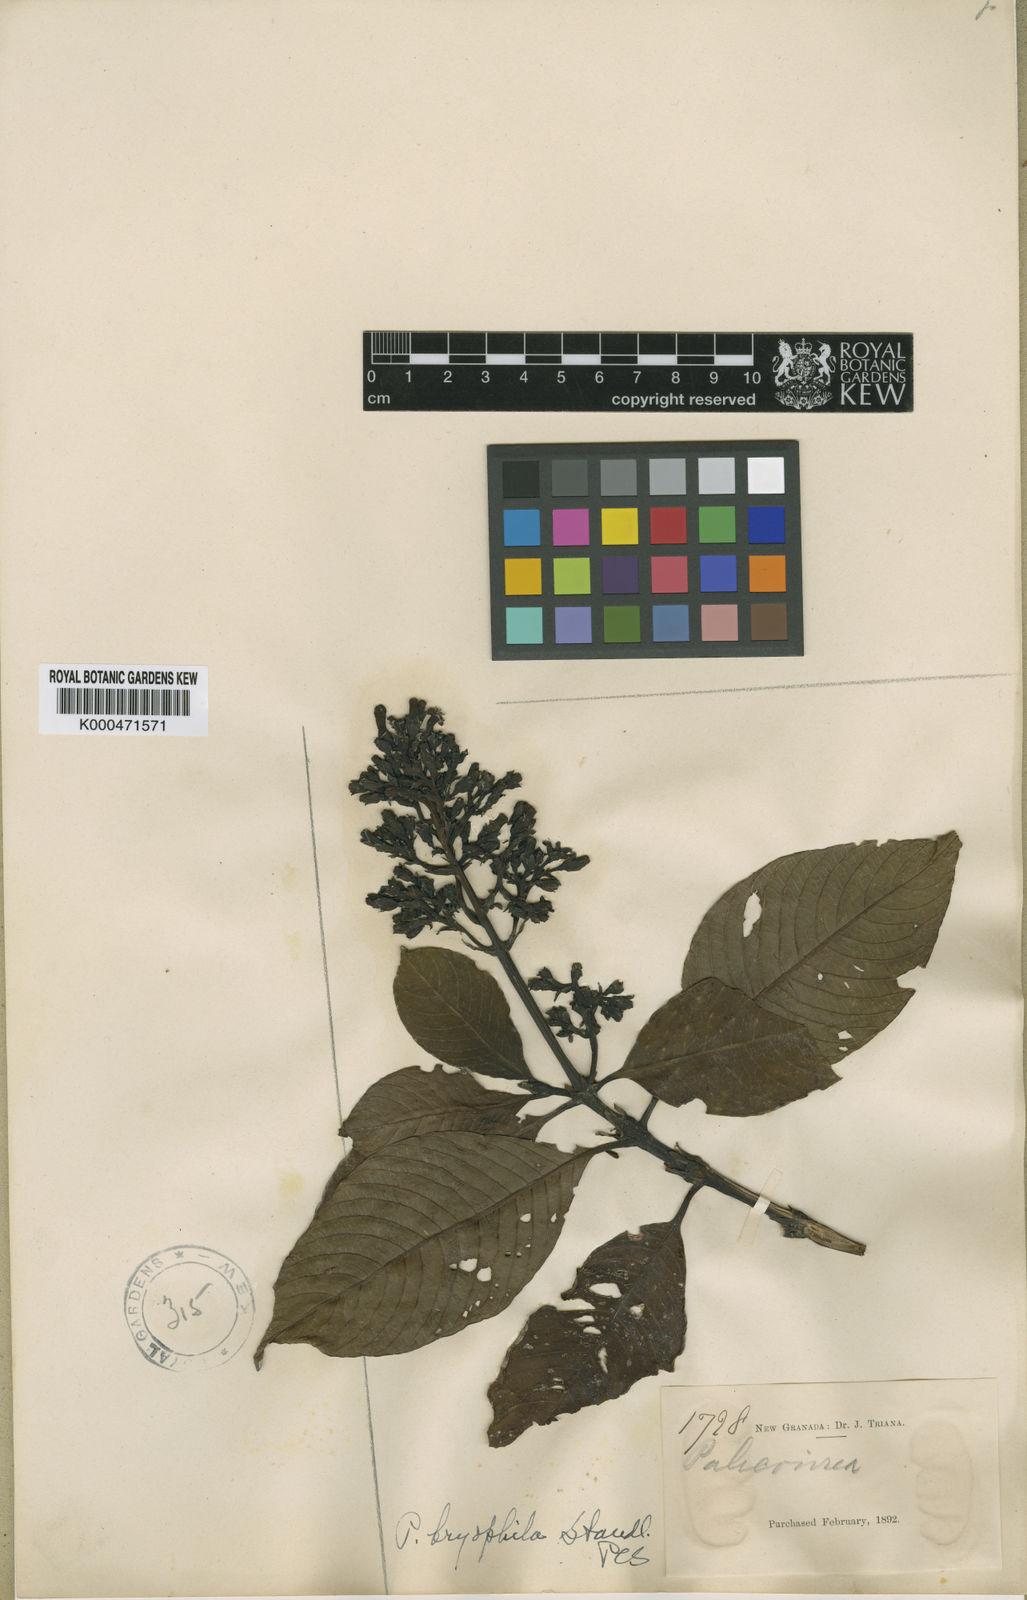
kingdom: Plantae
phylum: Tracheophyta
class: Magnoliopsida
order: Gentianales
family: Rubiaceae
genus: Palicourea
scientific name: Palicourea heterochroma
